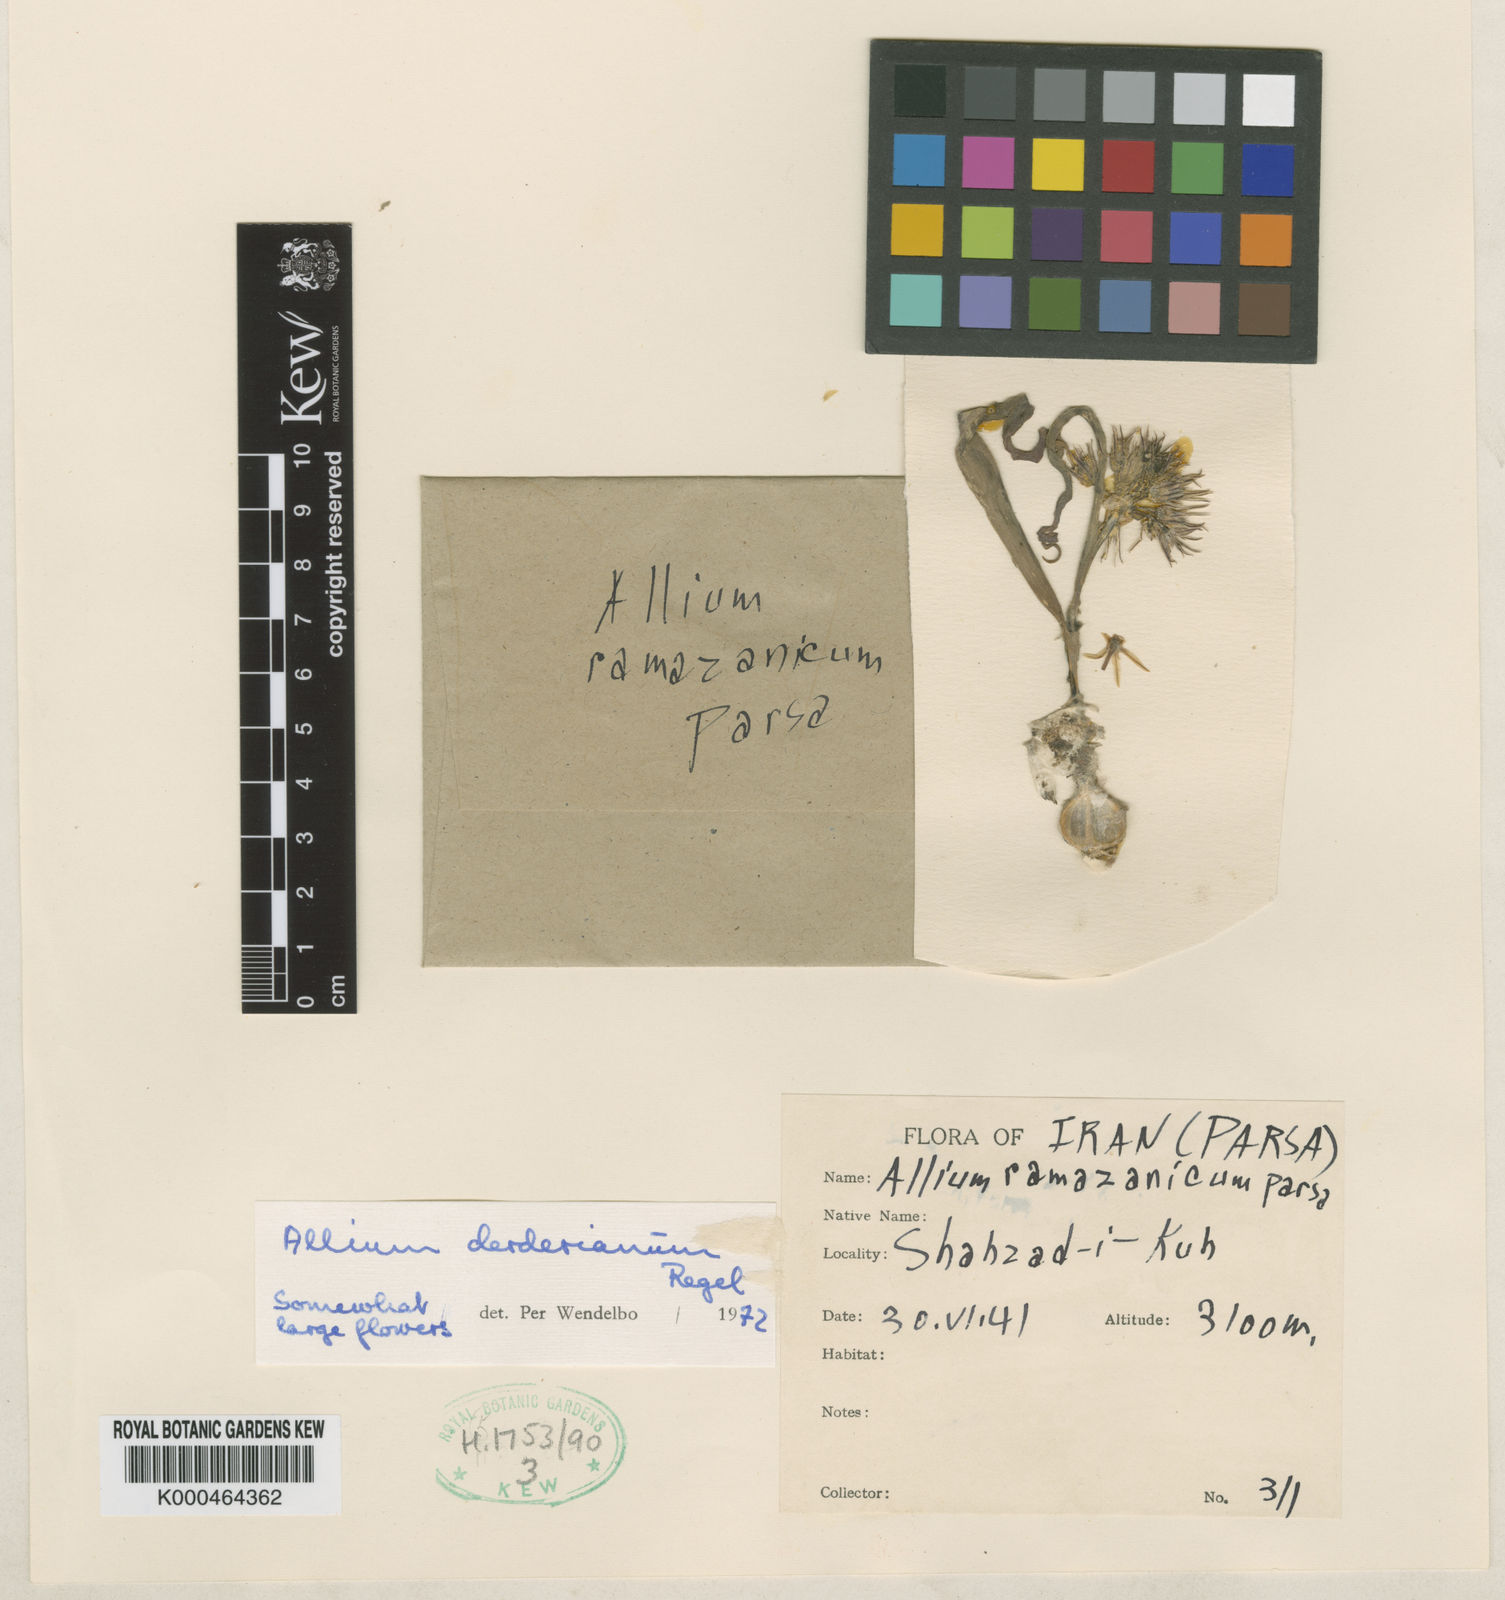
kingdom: Plantae
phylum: Tracheophyta
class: Liliopsida
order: Asparagales
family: Amaryllidaceae
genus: Allium
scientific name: Allium derderianum
